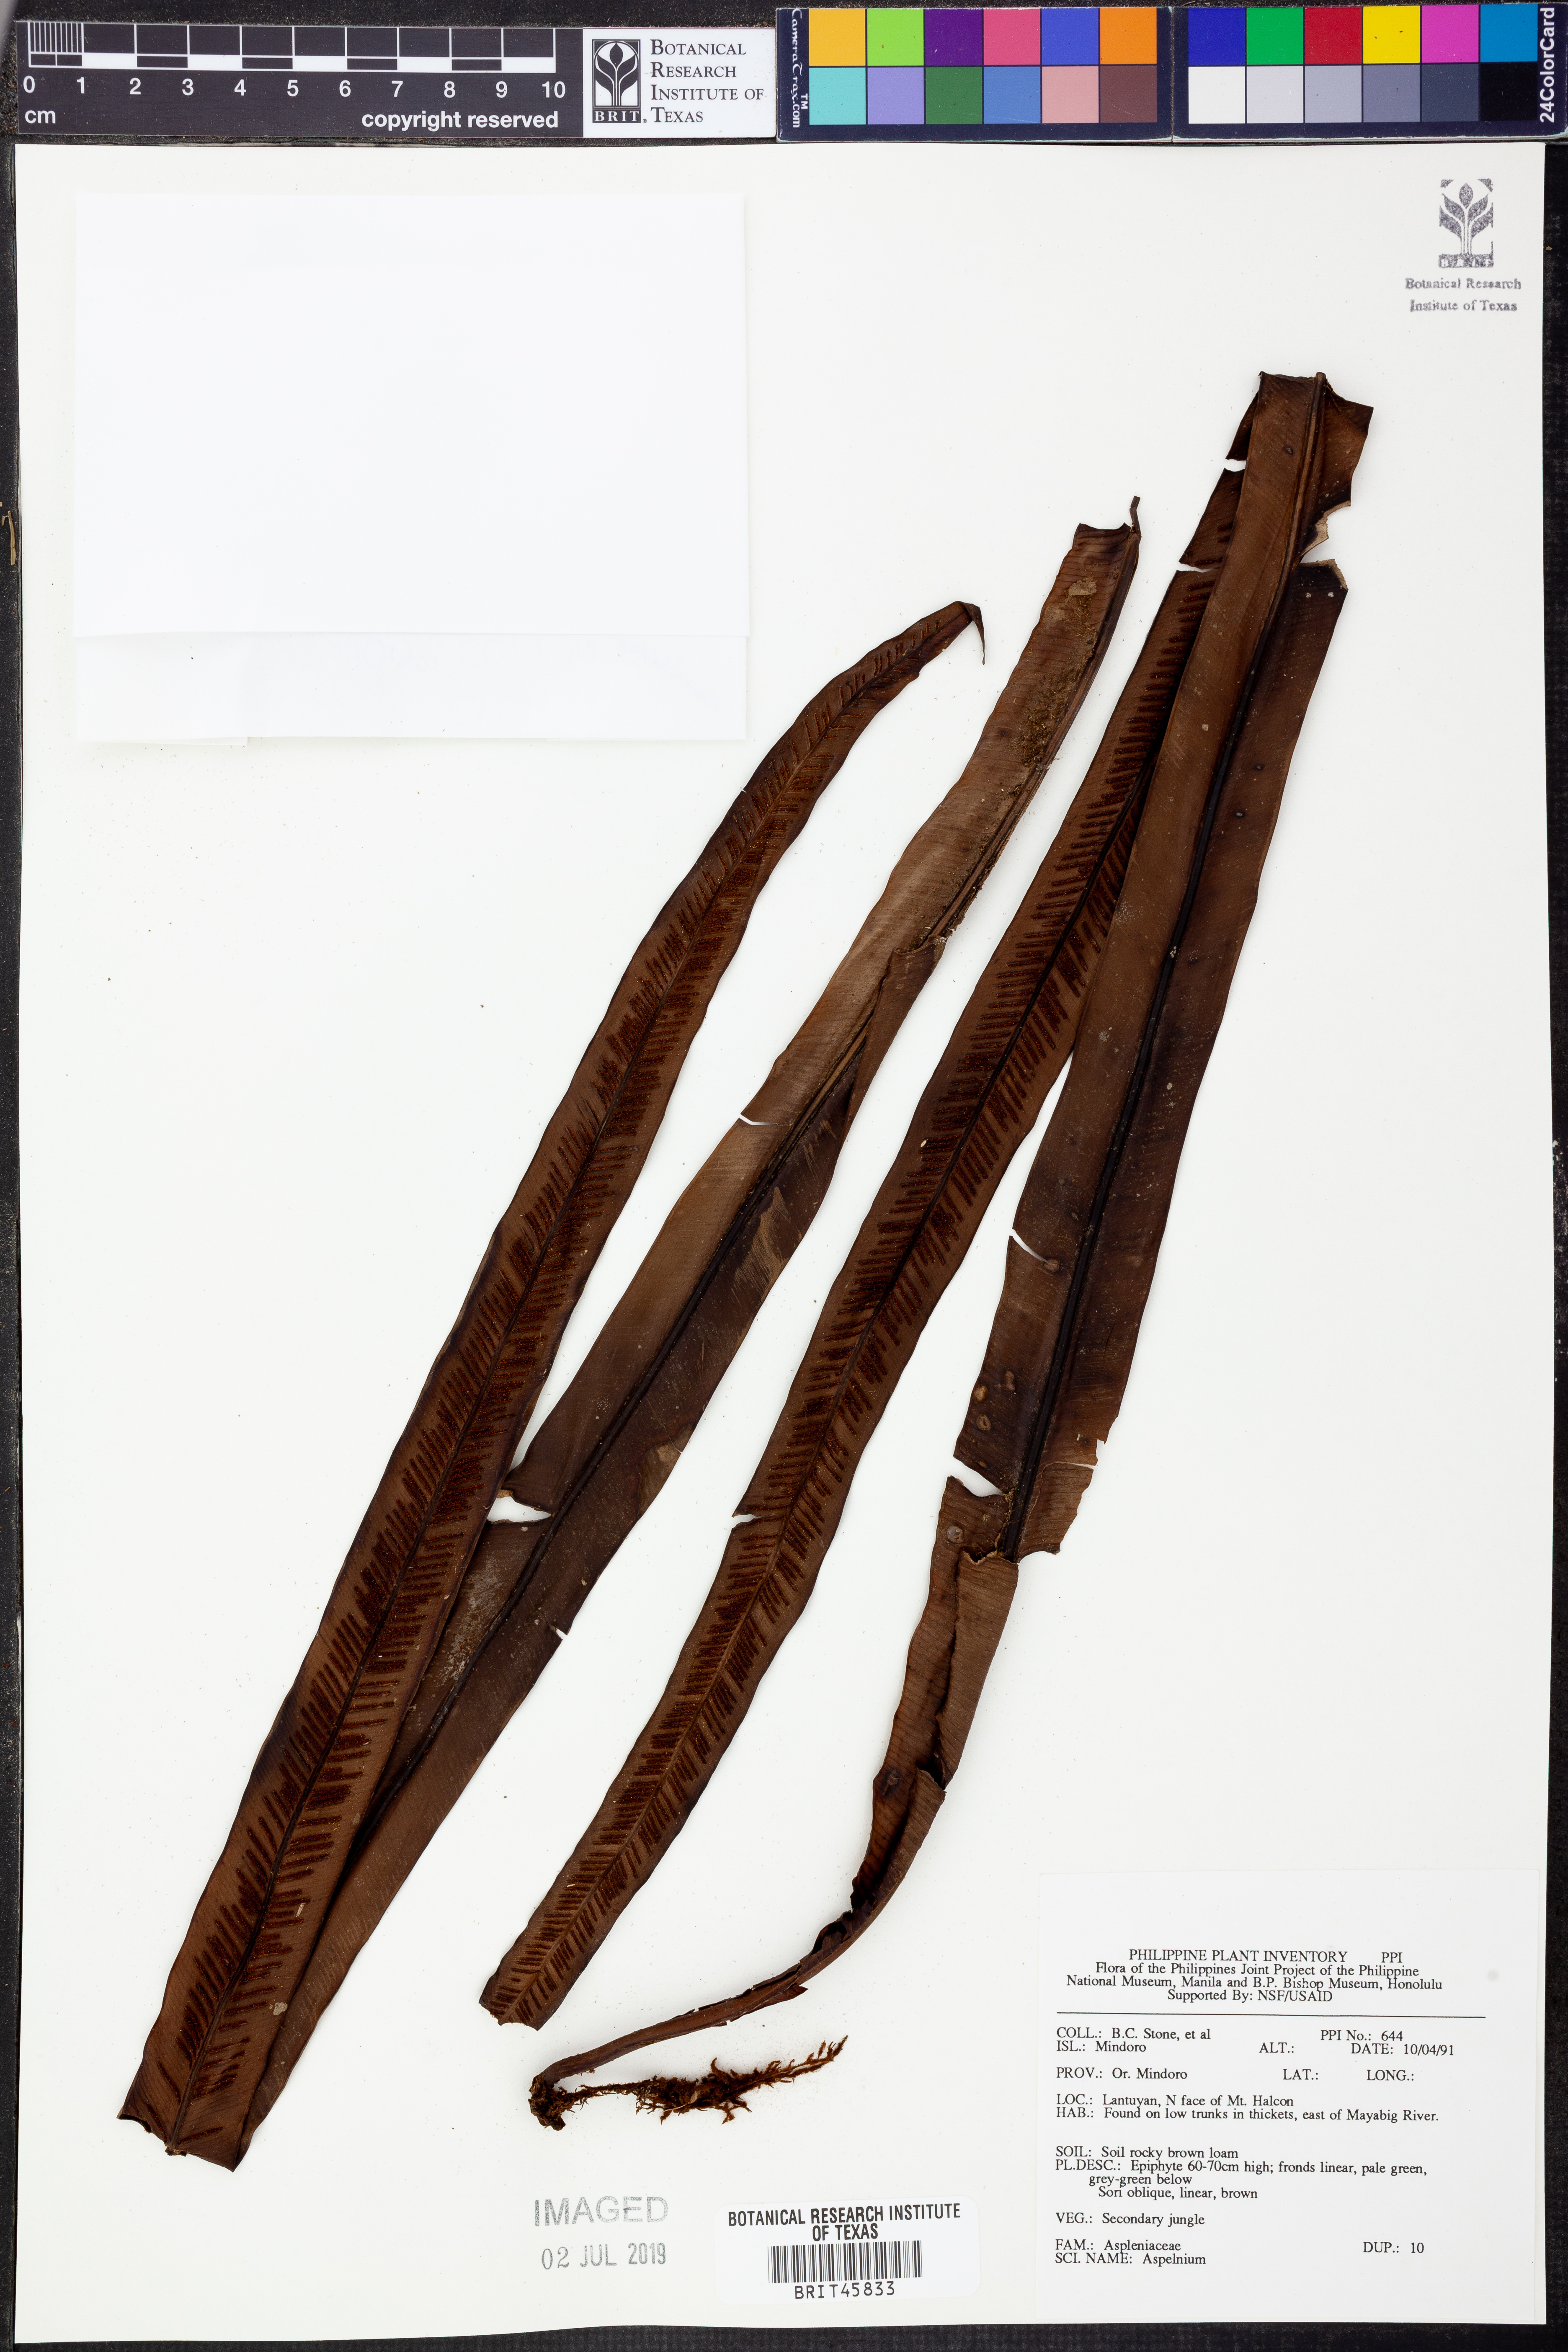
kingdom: Plantae
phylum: Tracheophyta
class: Polypodiopsida
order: Polypodiales
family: Aspleniaceae
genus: Asplenium
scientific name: Asplenium
